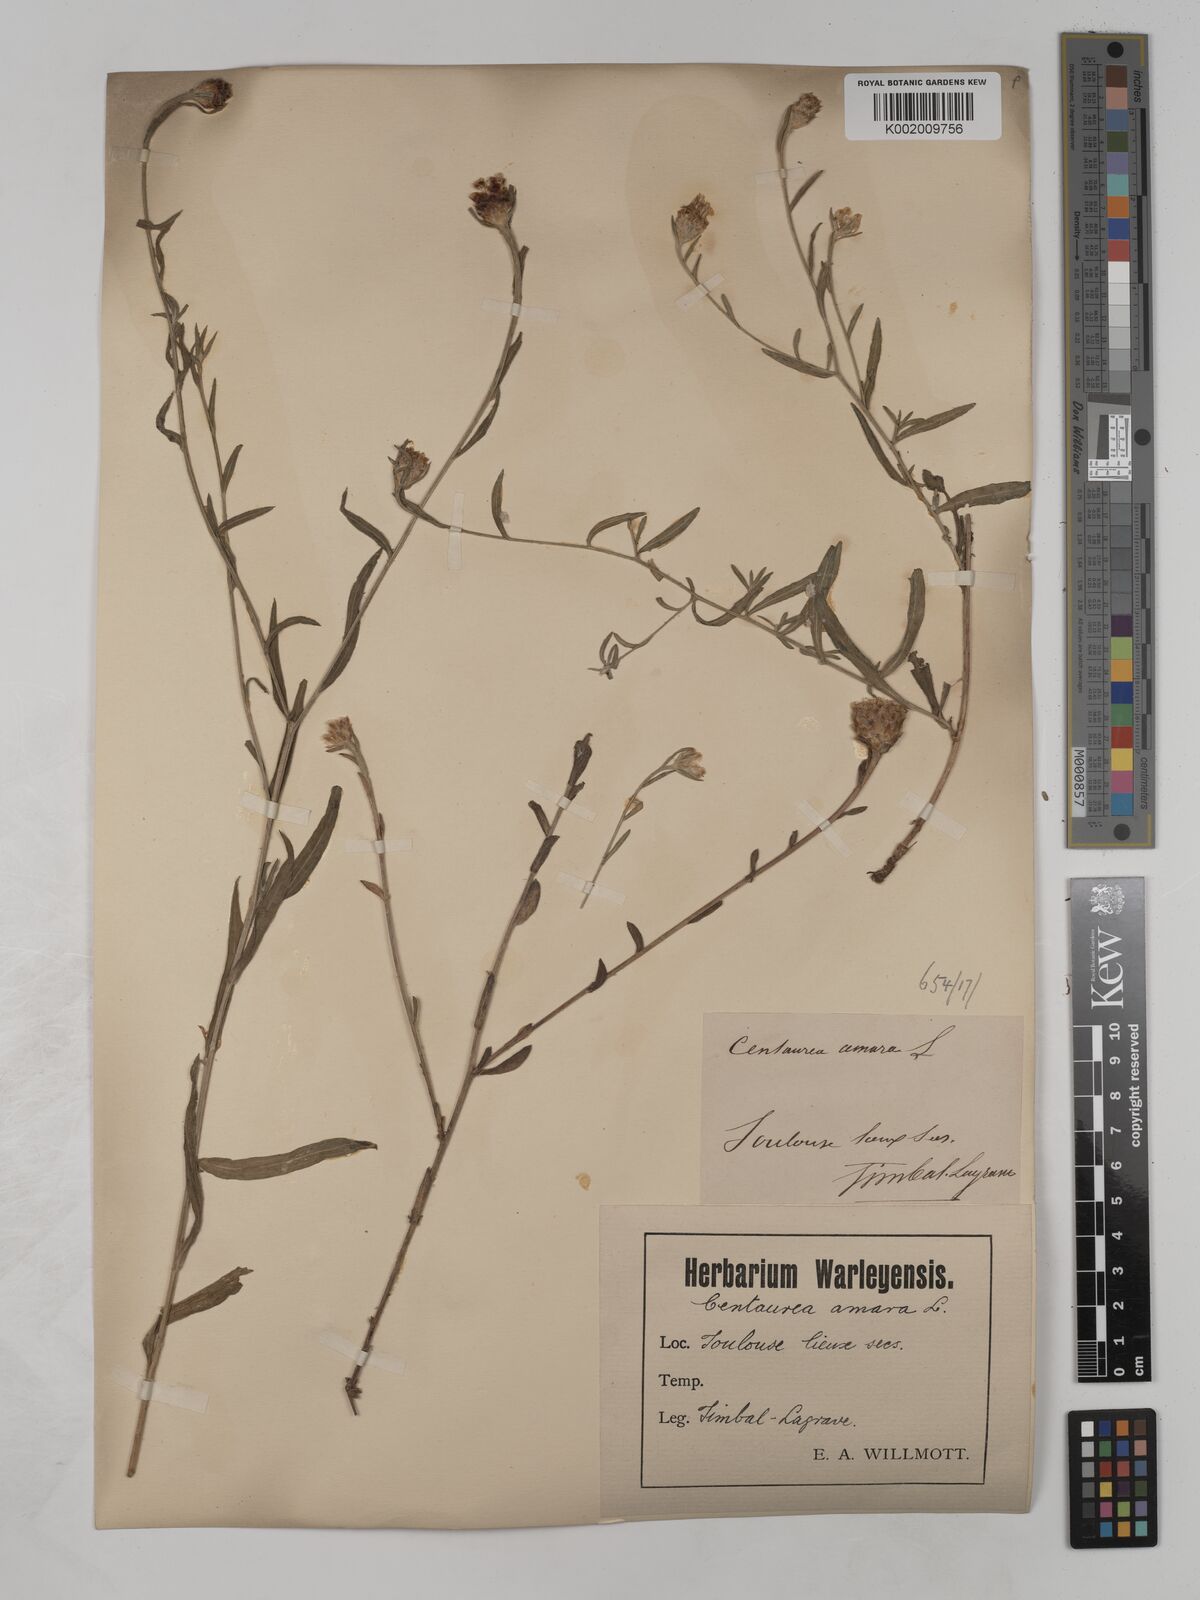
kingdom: Plantae
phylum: Tracheophyta
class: Magnoliopsida
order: Asterales
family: Asteraceae
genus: Centaurea
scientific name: Centaurea timbalii
